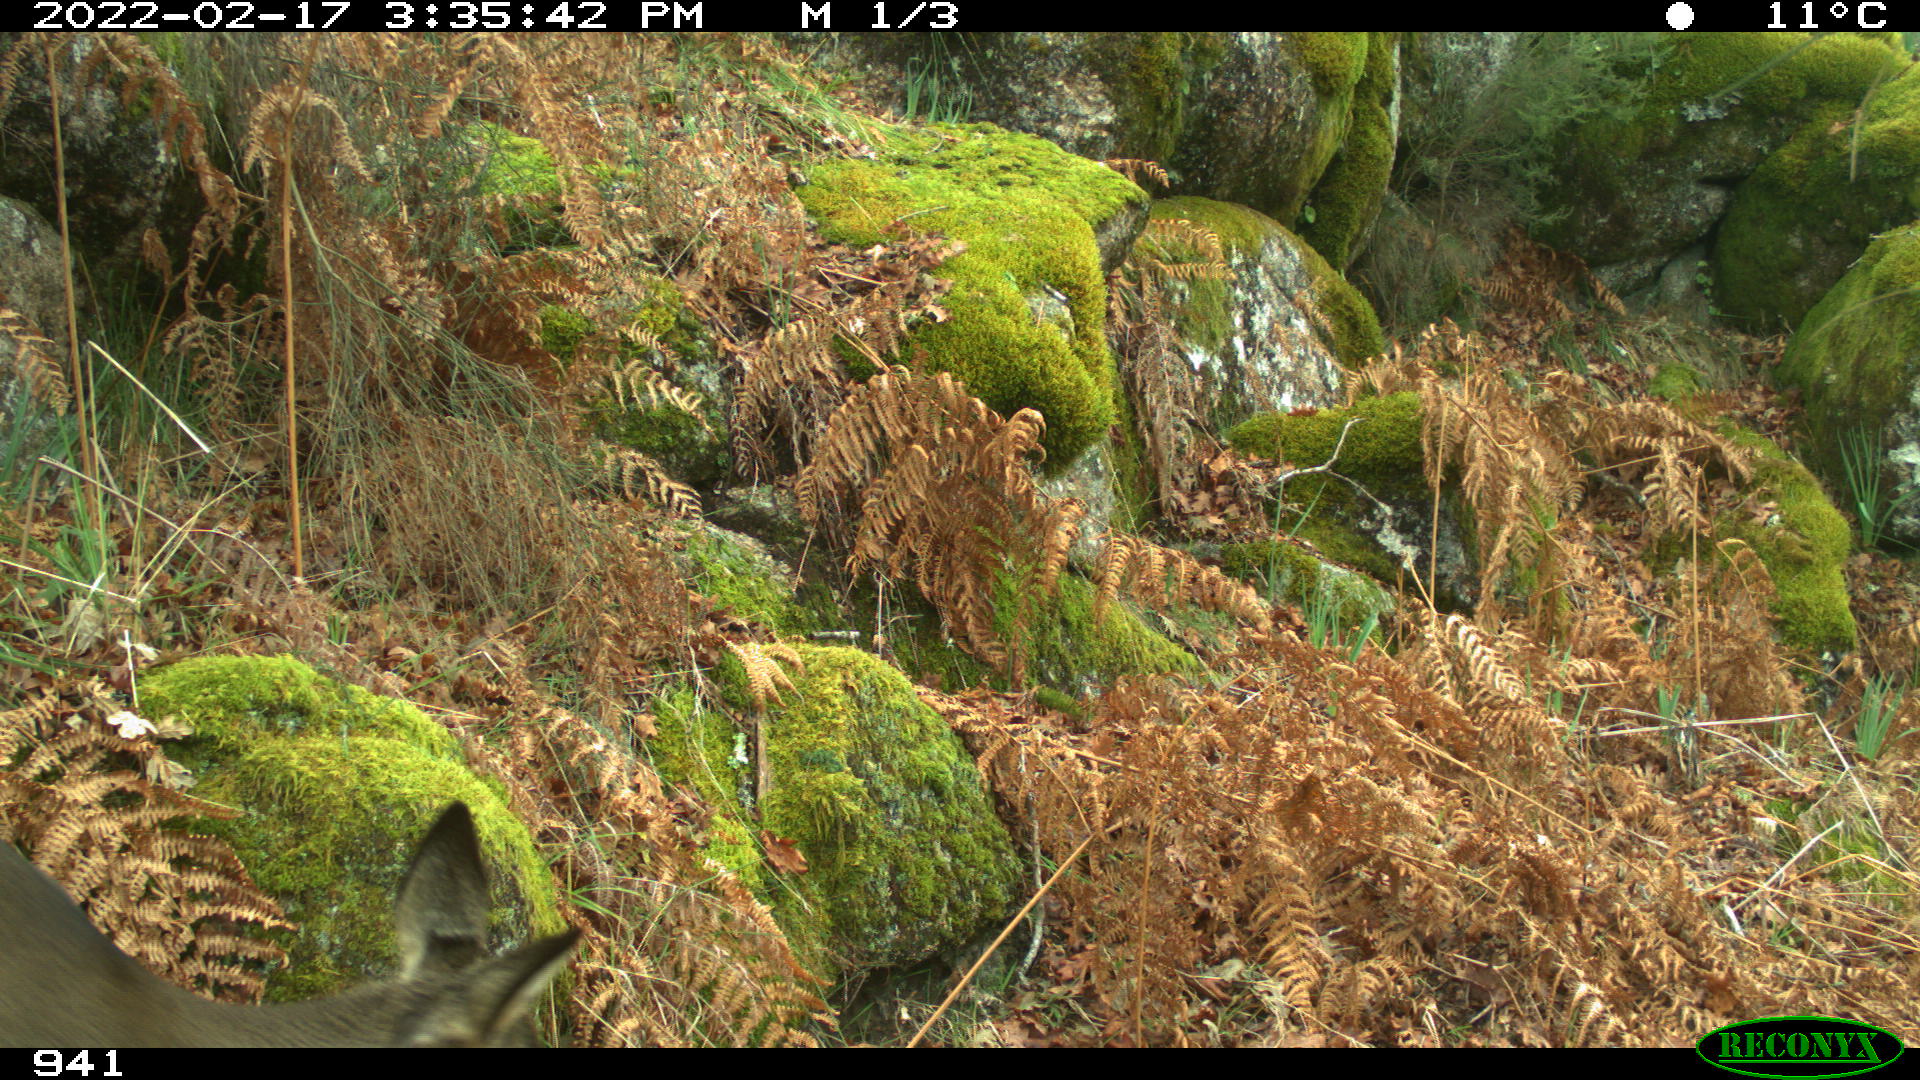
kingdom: Animalia
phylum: Chordata
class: Mammalia
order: Artiodactyla
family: Cervidae
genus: Capreolus
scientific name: Capreolus capreolus
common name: Western roe deer
